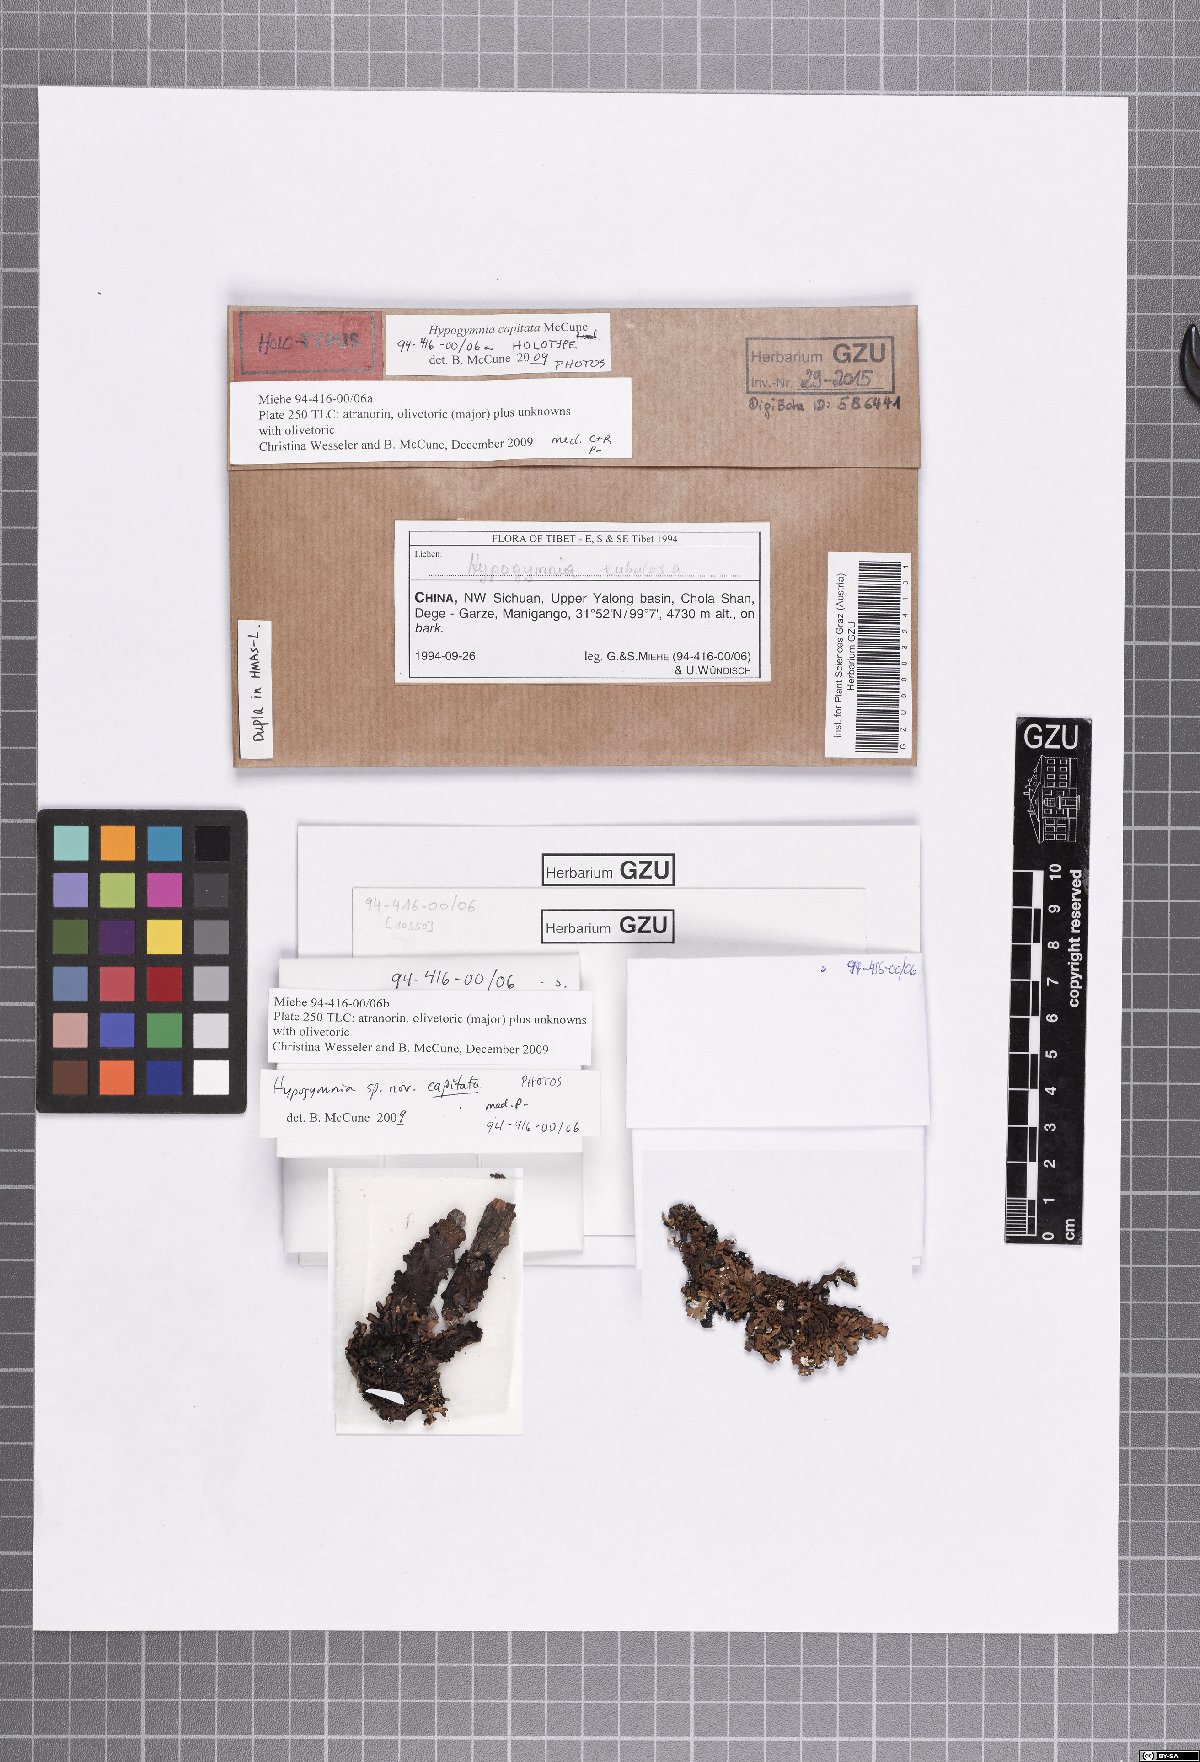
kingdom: Fungi
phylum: Ascomycota
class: Lecanoromycetes
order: Lecanorales
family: Parmeliaceae
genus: Hypogymnia
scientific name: Hypogymnia capitata
